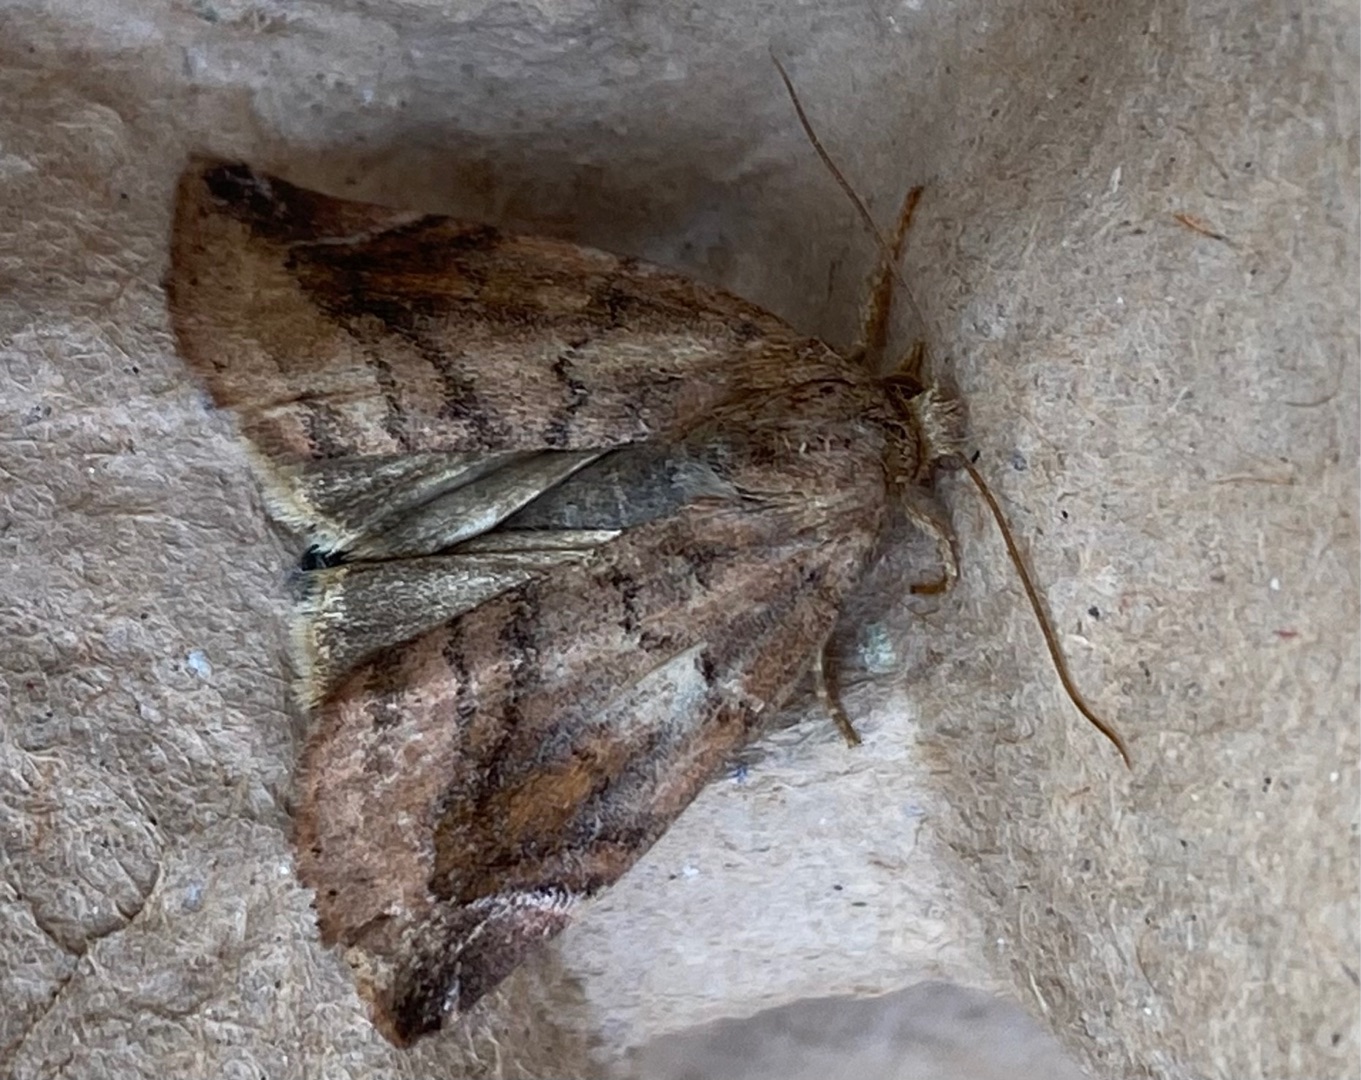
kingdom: Animalia
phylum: Arthropoda
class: Insecta
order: Lepidoptera
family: Noctuidae
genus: Cosmia
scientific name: Cosmia pyralina
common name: Violet ordenugle
